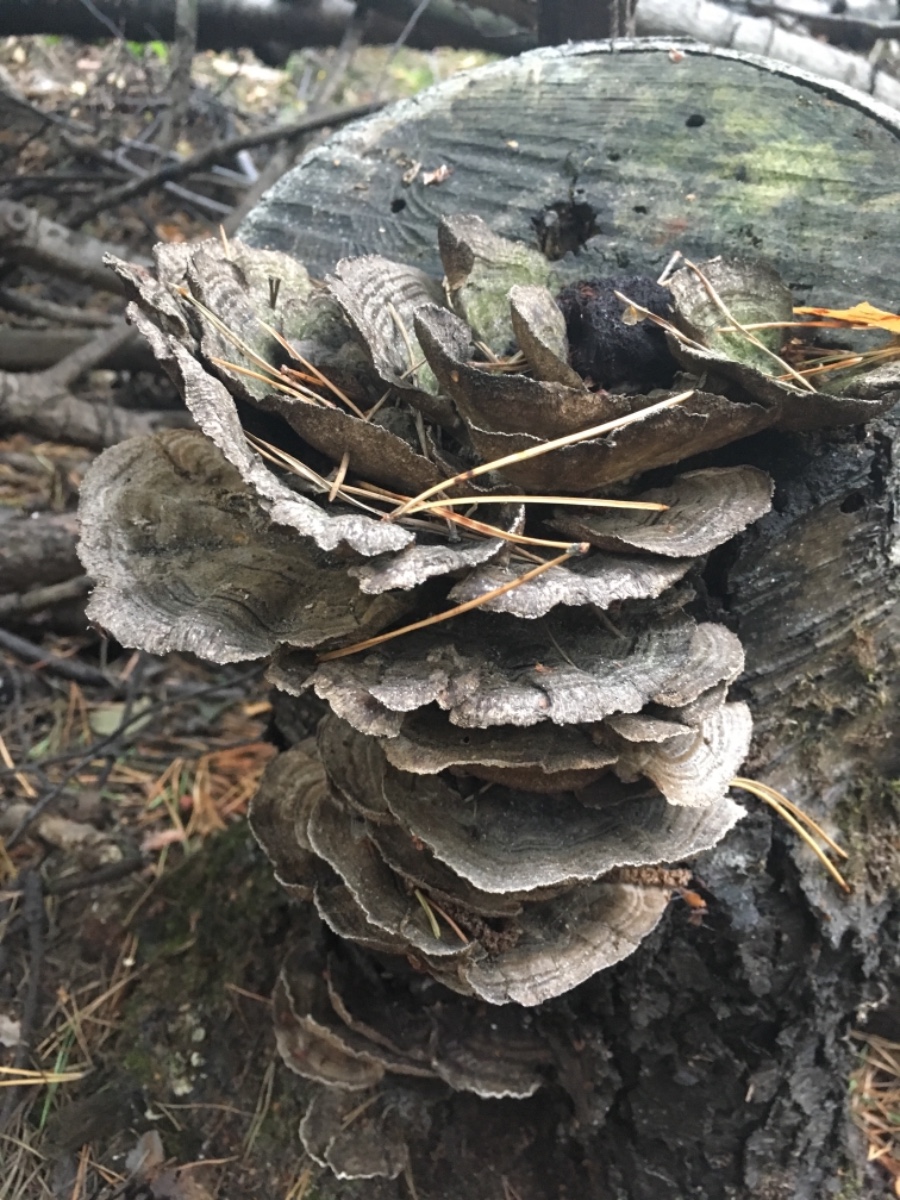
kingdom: Fungi
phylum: Basidiomycota
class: Agaricomycetes
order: Polyporales
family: Polyporaceae
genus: Trametes
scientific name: Trametes versicolor
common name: broget læderporesvamp
